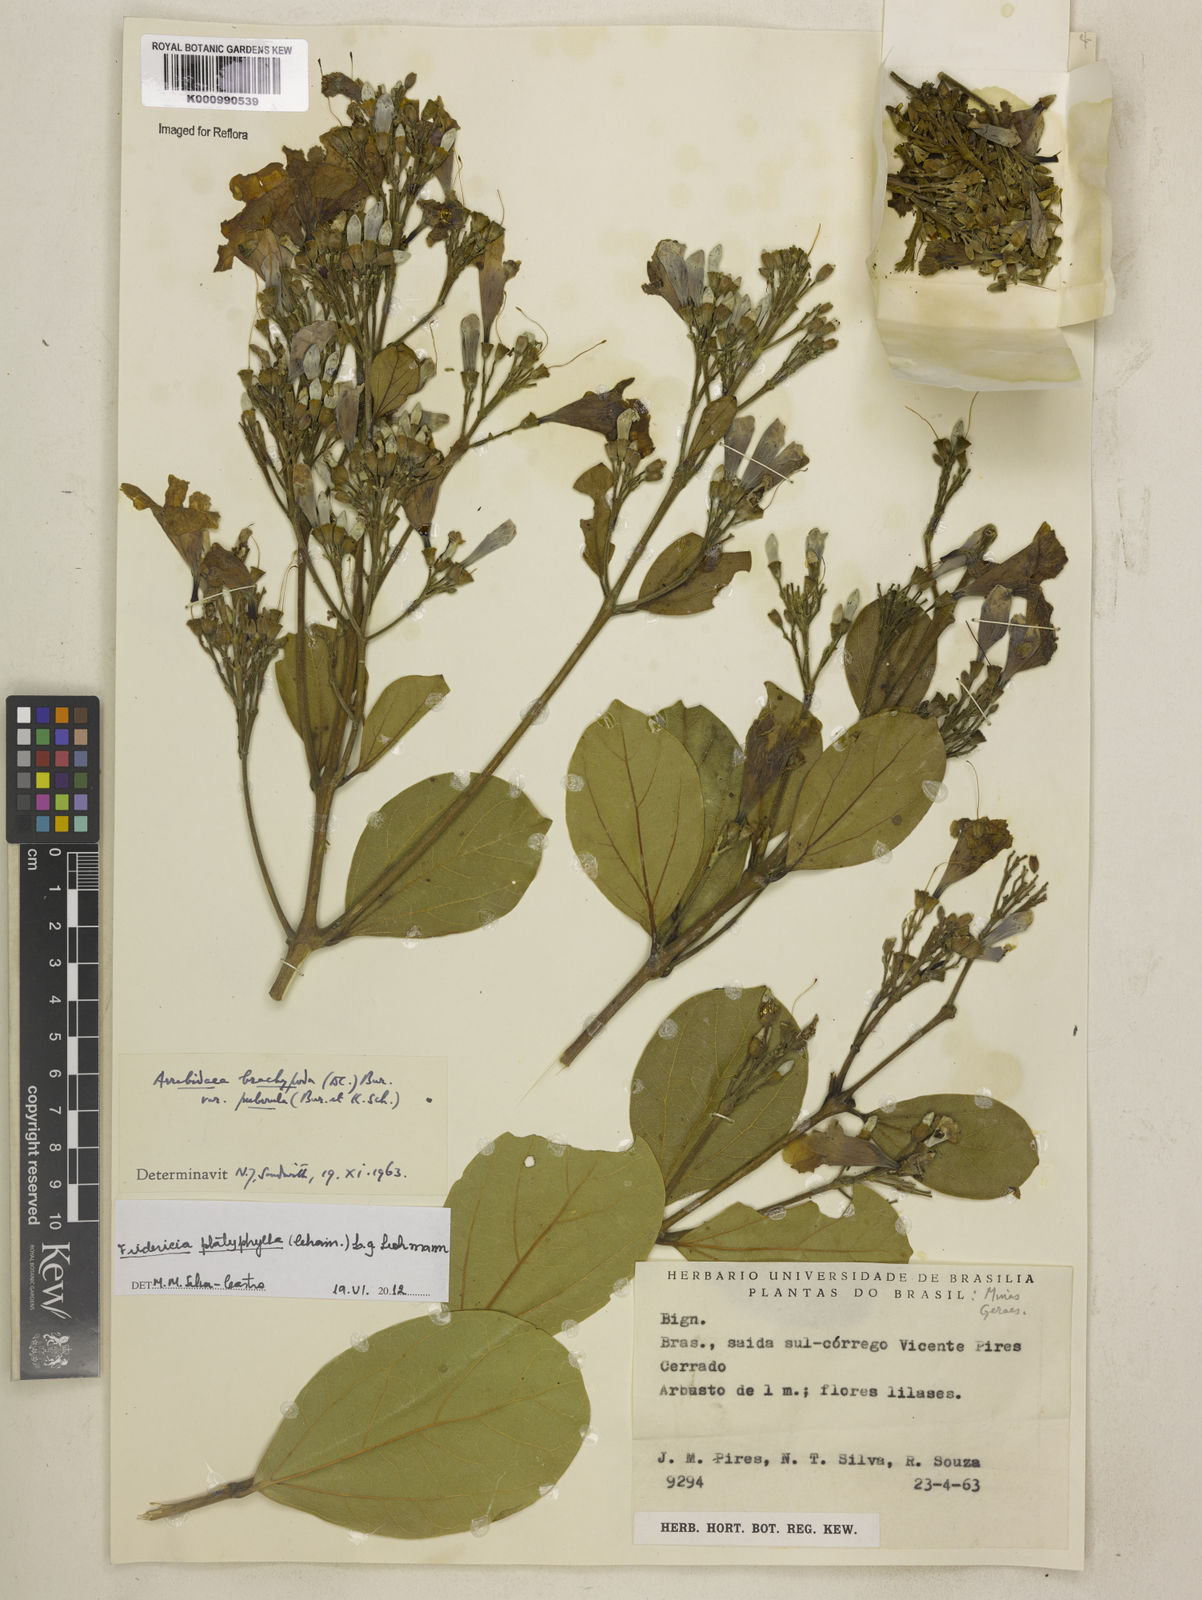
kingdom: Plantae
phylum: Tracheophyta
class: Magnoliopsida
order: Lamiales
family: Bignoniaceae
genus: Fridericia
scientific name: Fridericia platyphylla
